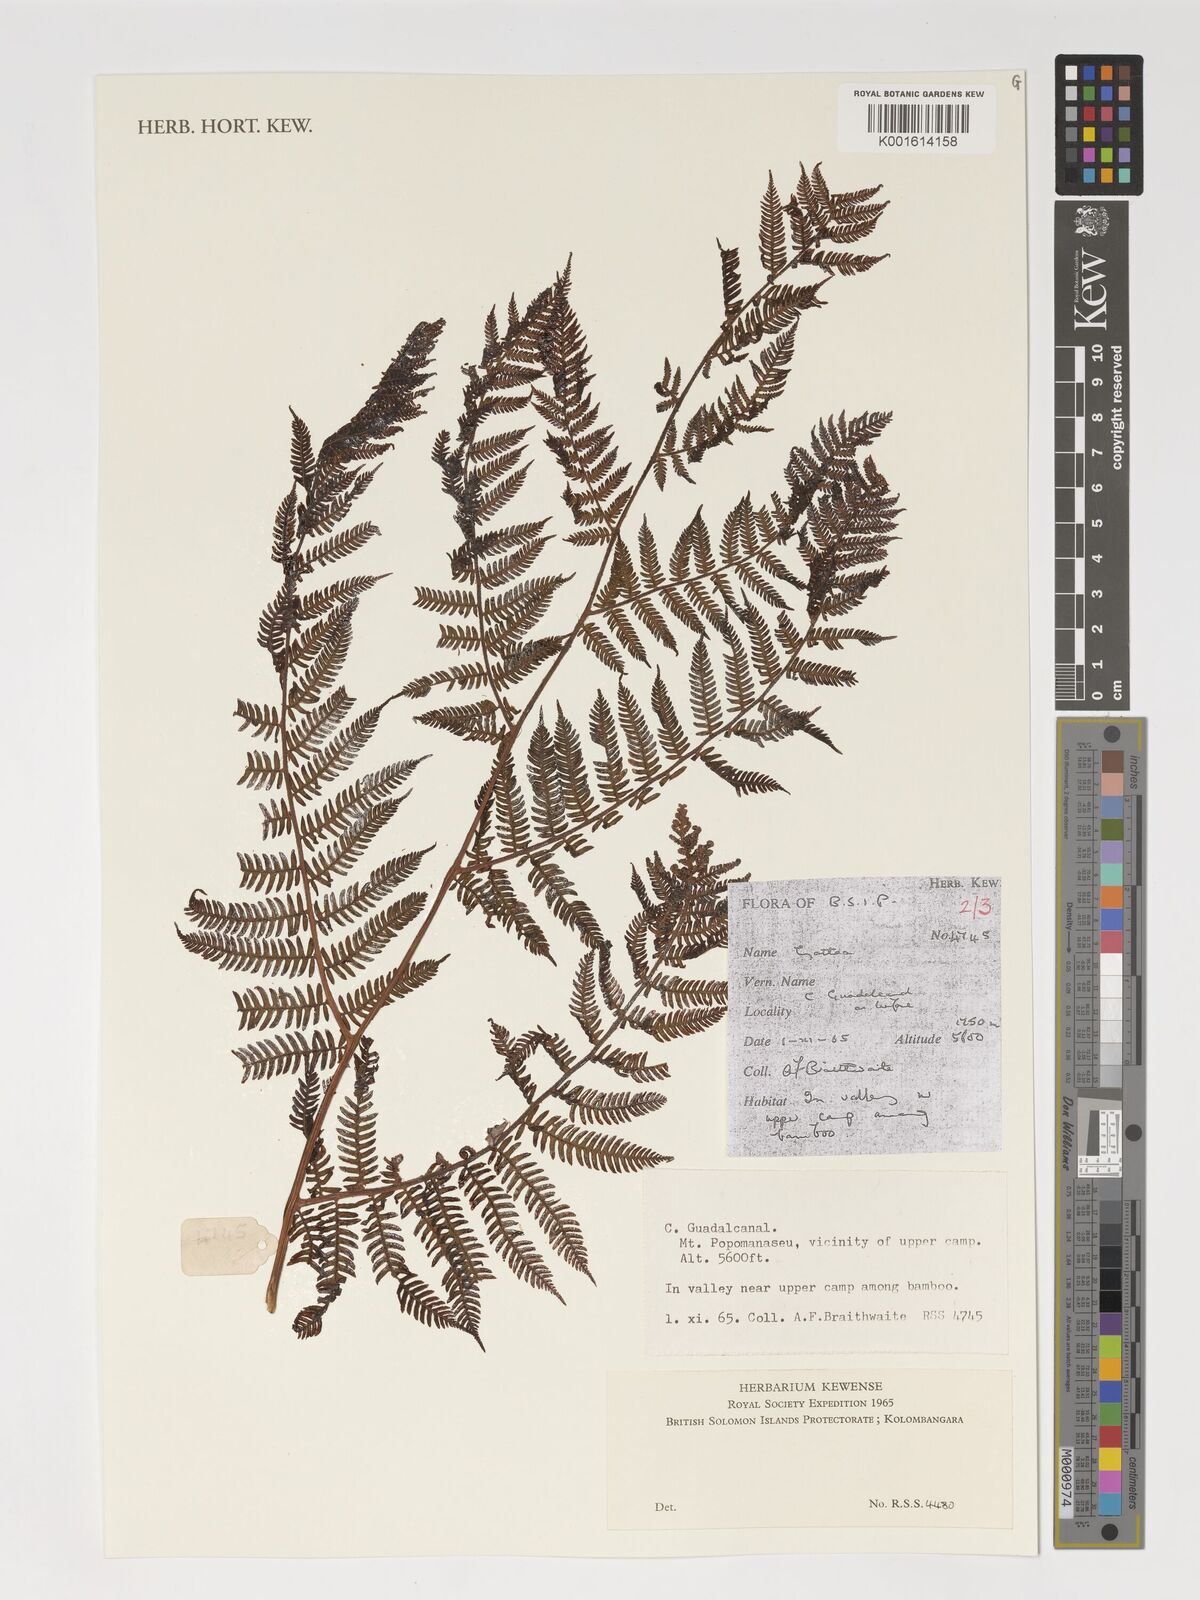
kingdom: Plantae
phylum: Tracheophyta
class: Polypodiopsida
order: Cyatheales
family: Cyatheaceae
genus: Alsophila
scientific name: Alsophila archboldii
